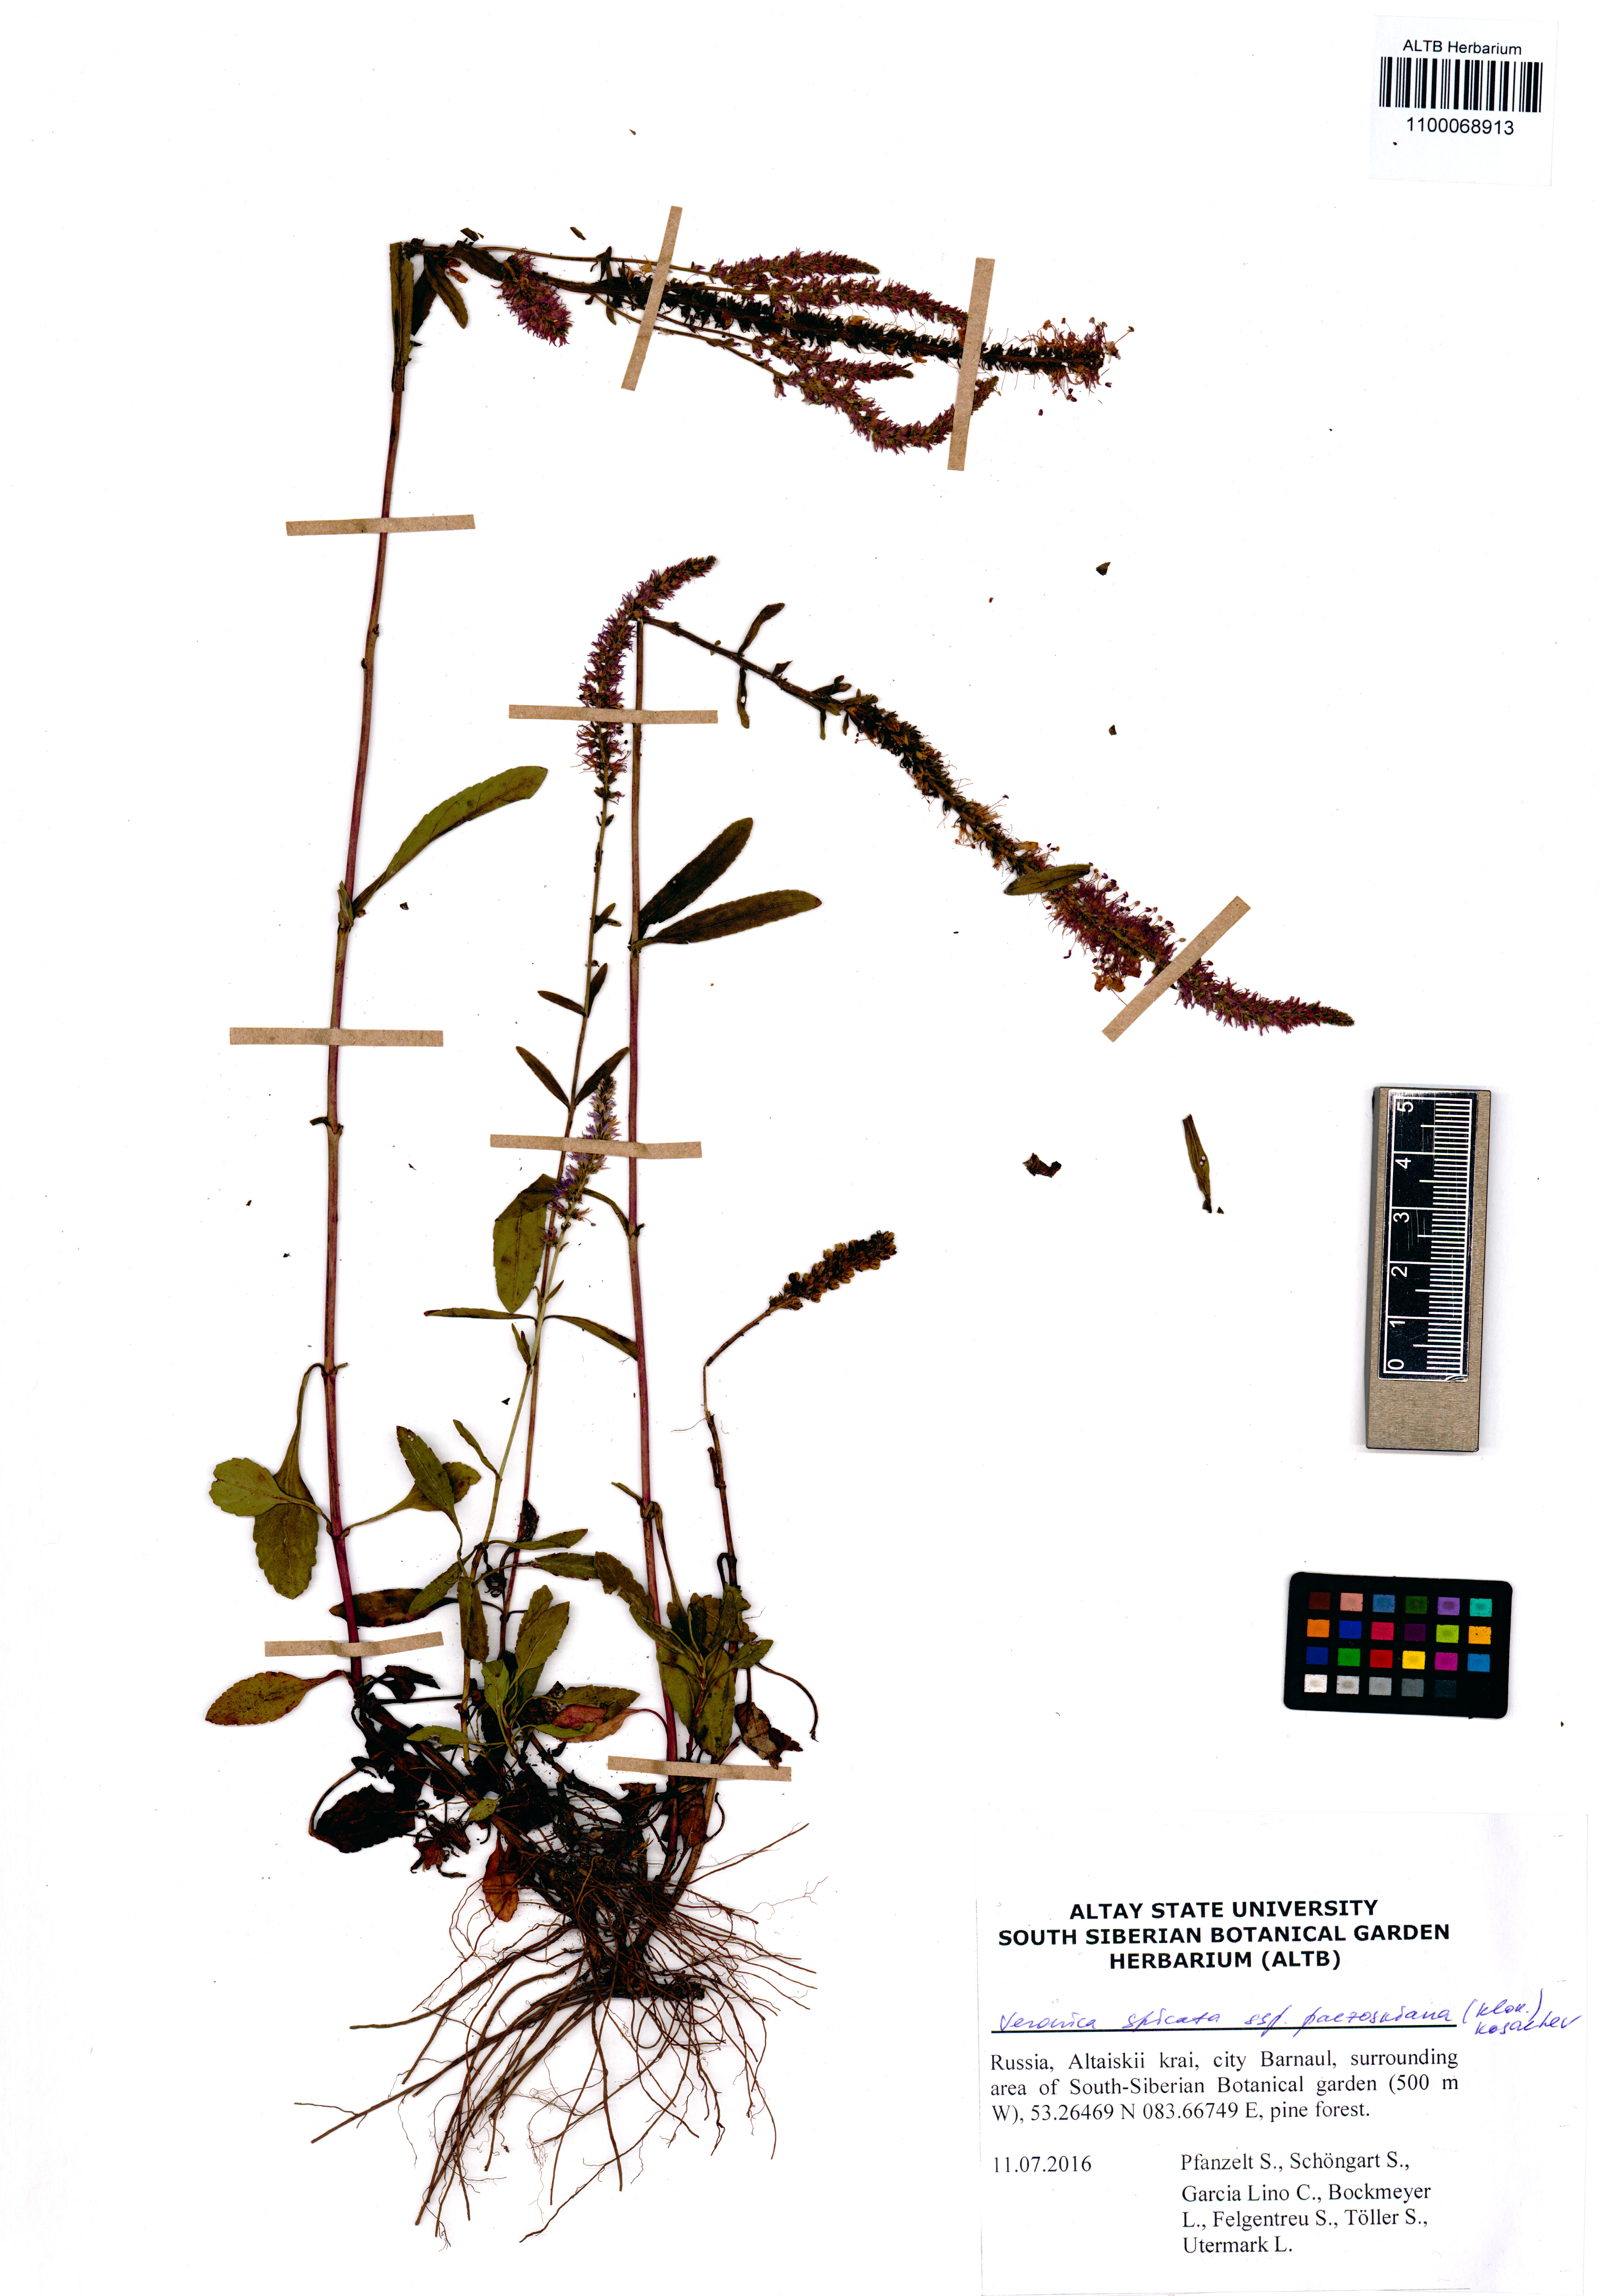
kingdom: Plantae
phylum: Tracheophyta
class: Magnoliopsida
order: Lamiales
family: Plantaginaceae
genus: Veronica
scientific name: Veronica spicata
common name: Spiked speedwell
